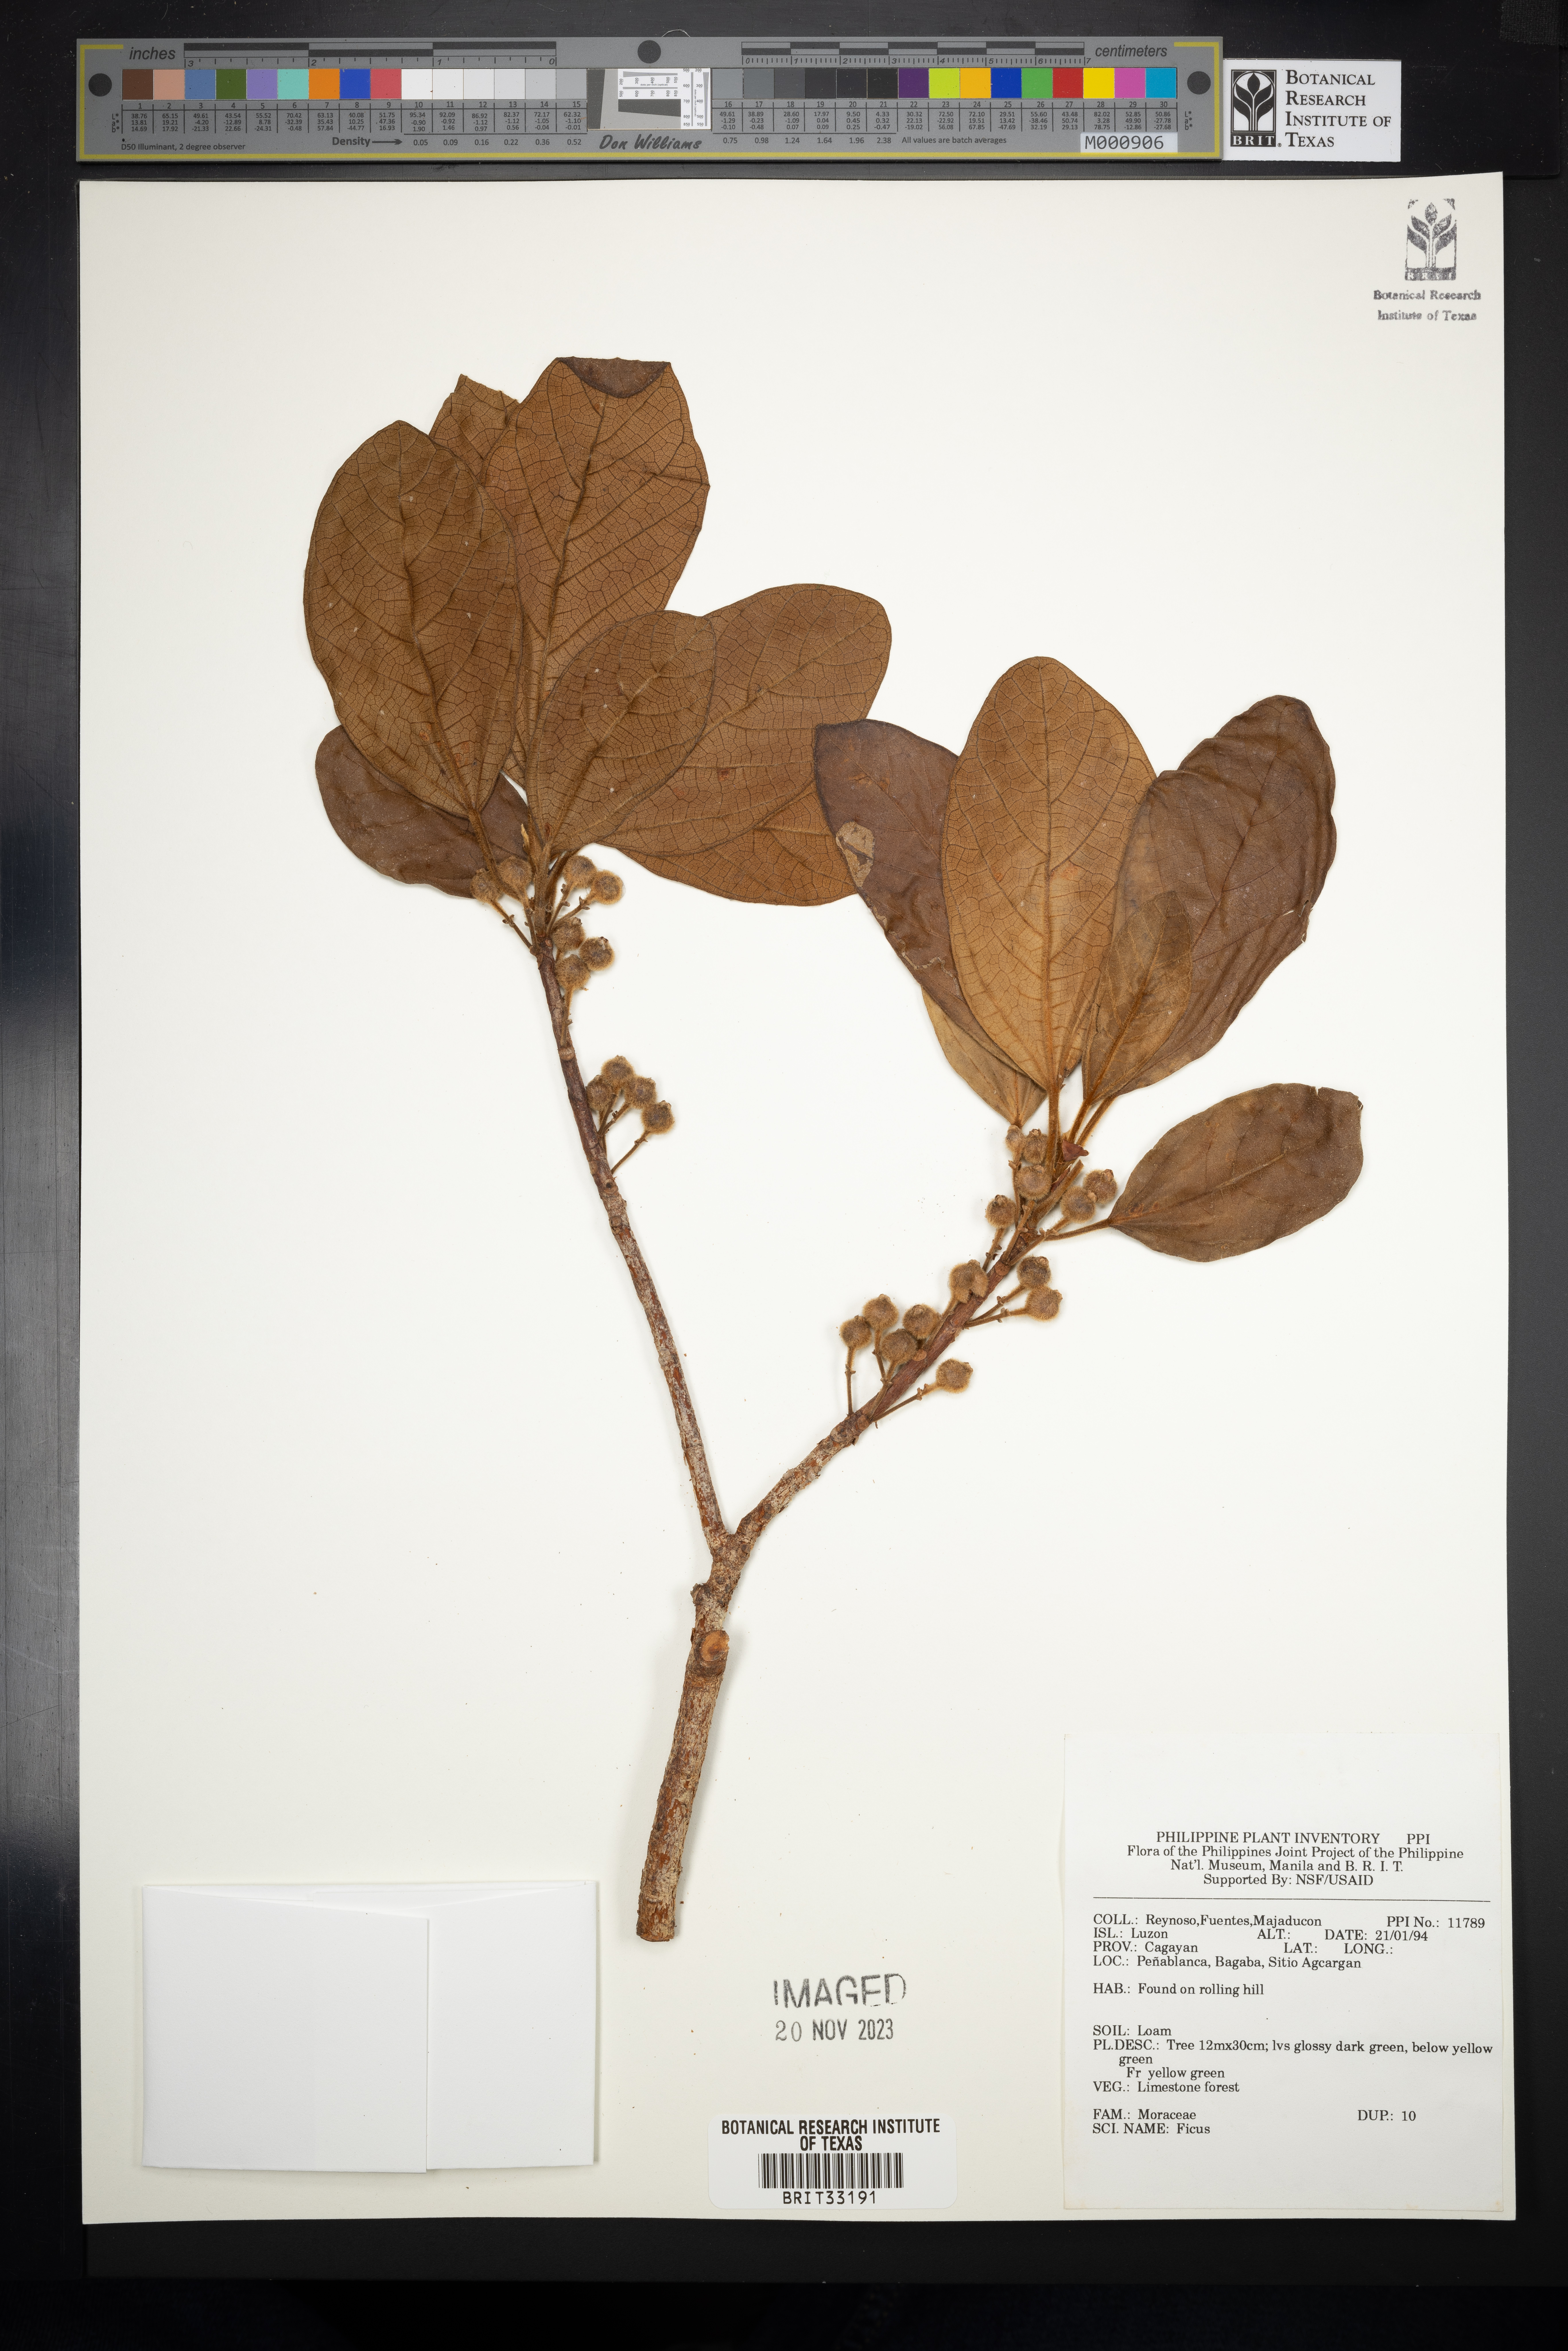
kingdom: Plantae
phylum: Tracheophyta
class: Magnoliopsida
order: Rosales
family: Moraceae
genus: Ficus
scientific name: Ficus
